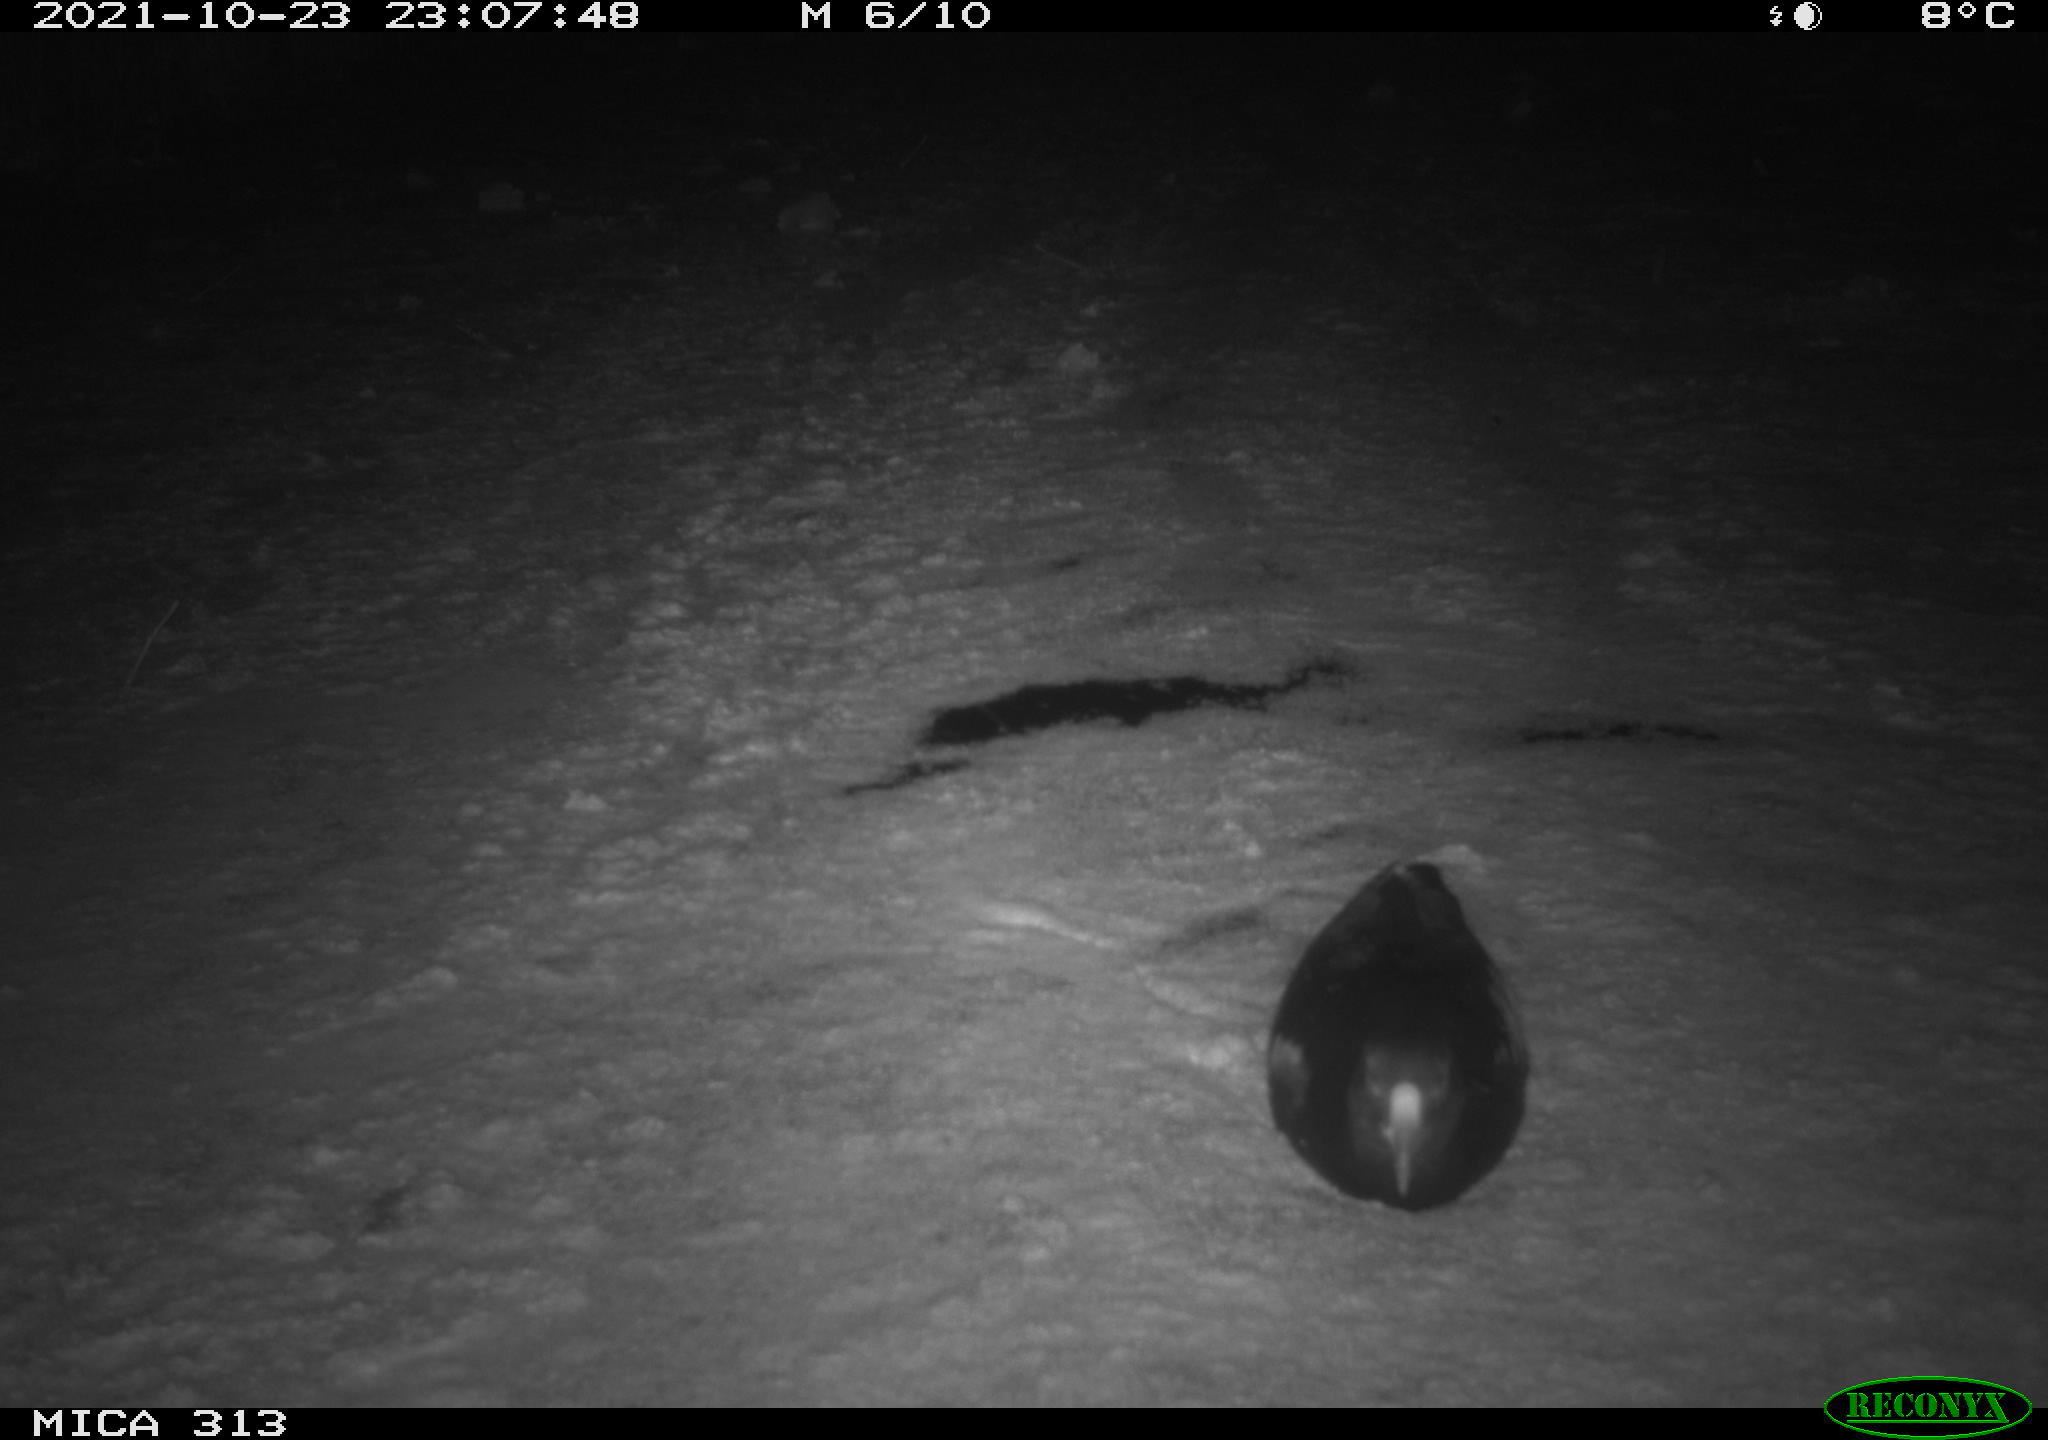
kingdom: Animalia
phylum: Chordata
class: Aves
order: Gruiformes
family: Rallidae
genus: Gallinula
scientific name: Gallinula chloropus
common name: Common moorhen
